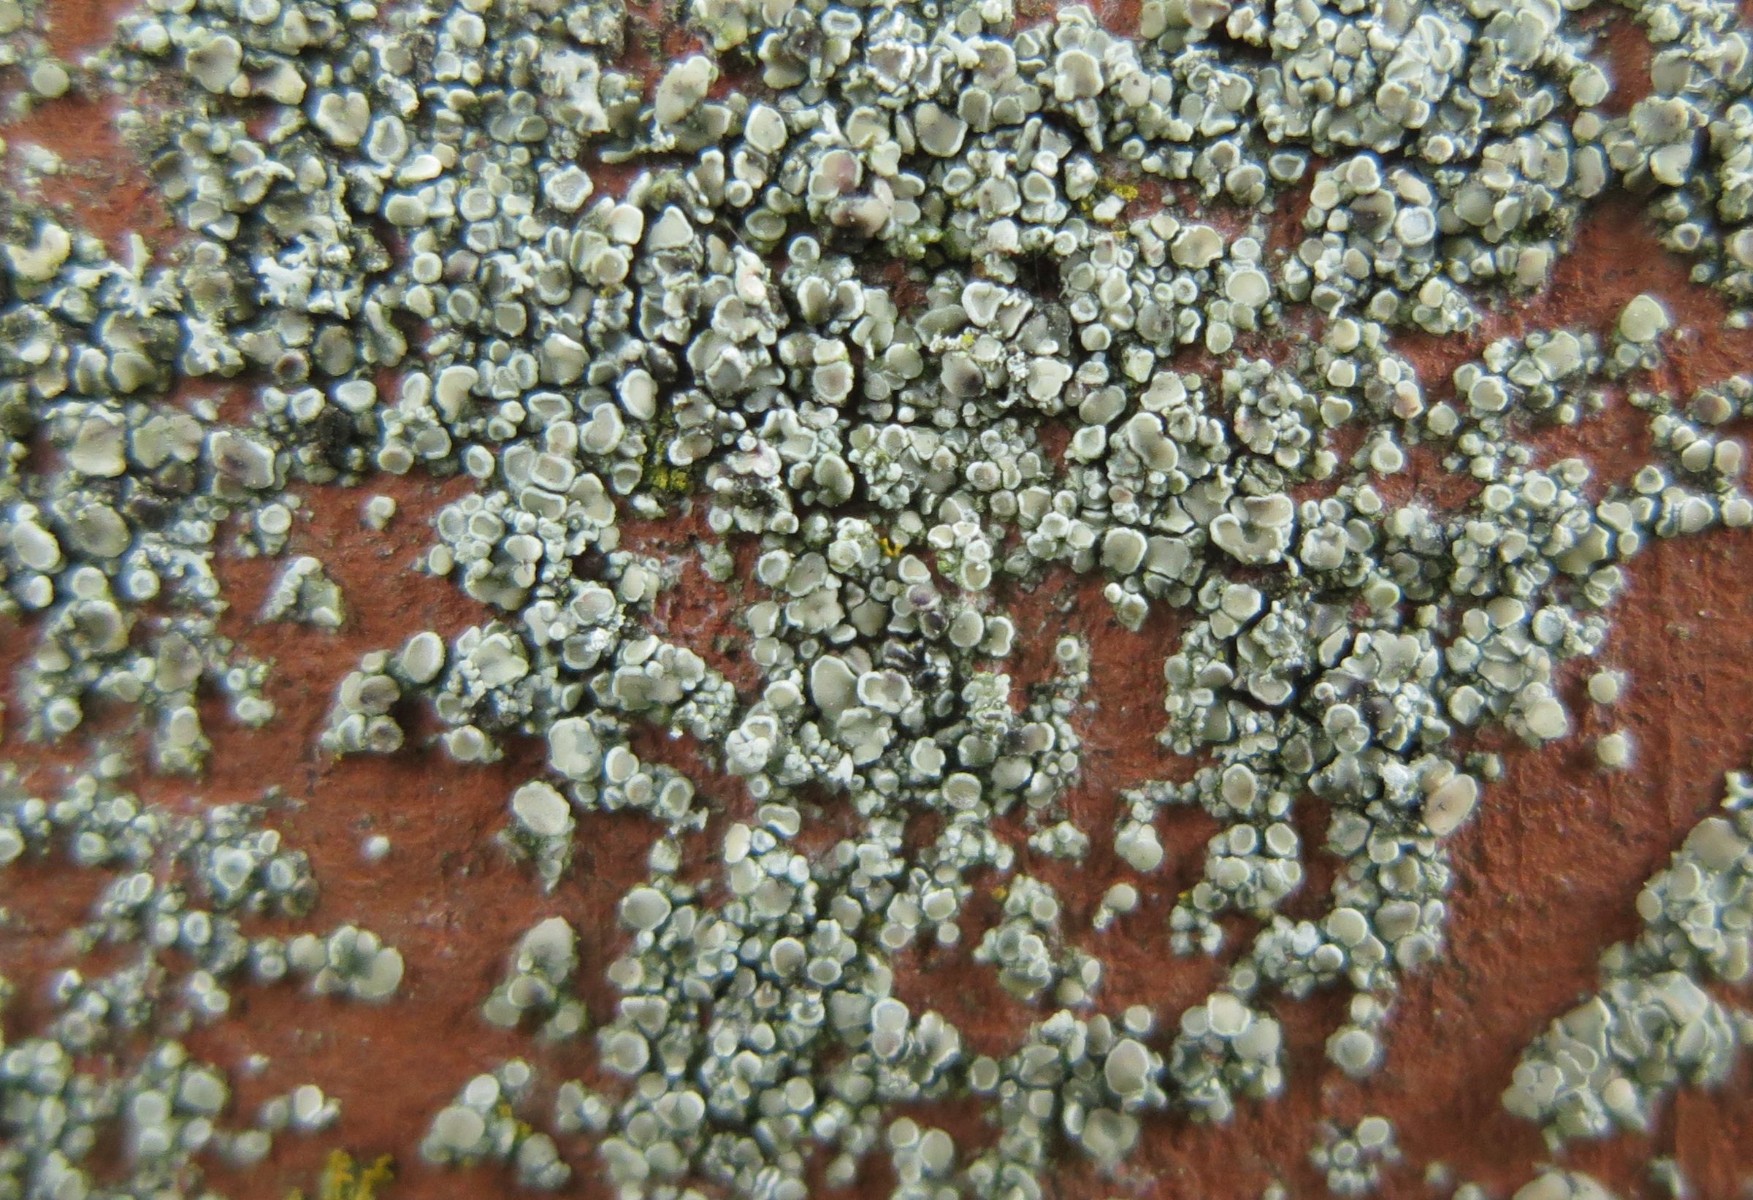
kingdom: Fungi
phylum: Ascomycota
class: Lecanoromycetes
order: Lecanorales
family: Lecanoraceae
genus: Polyozosia
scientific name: Polyozosia albescens
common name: cement-kantskivelav
